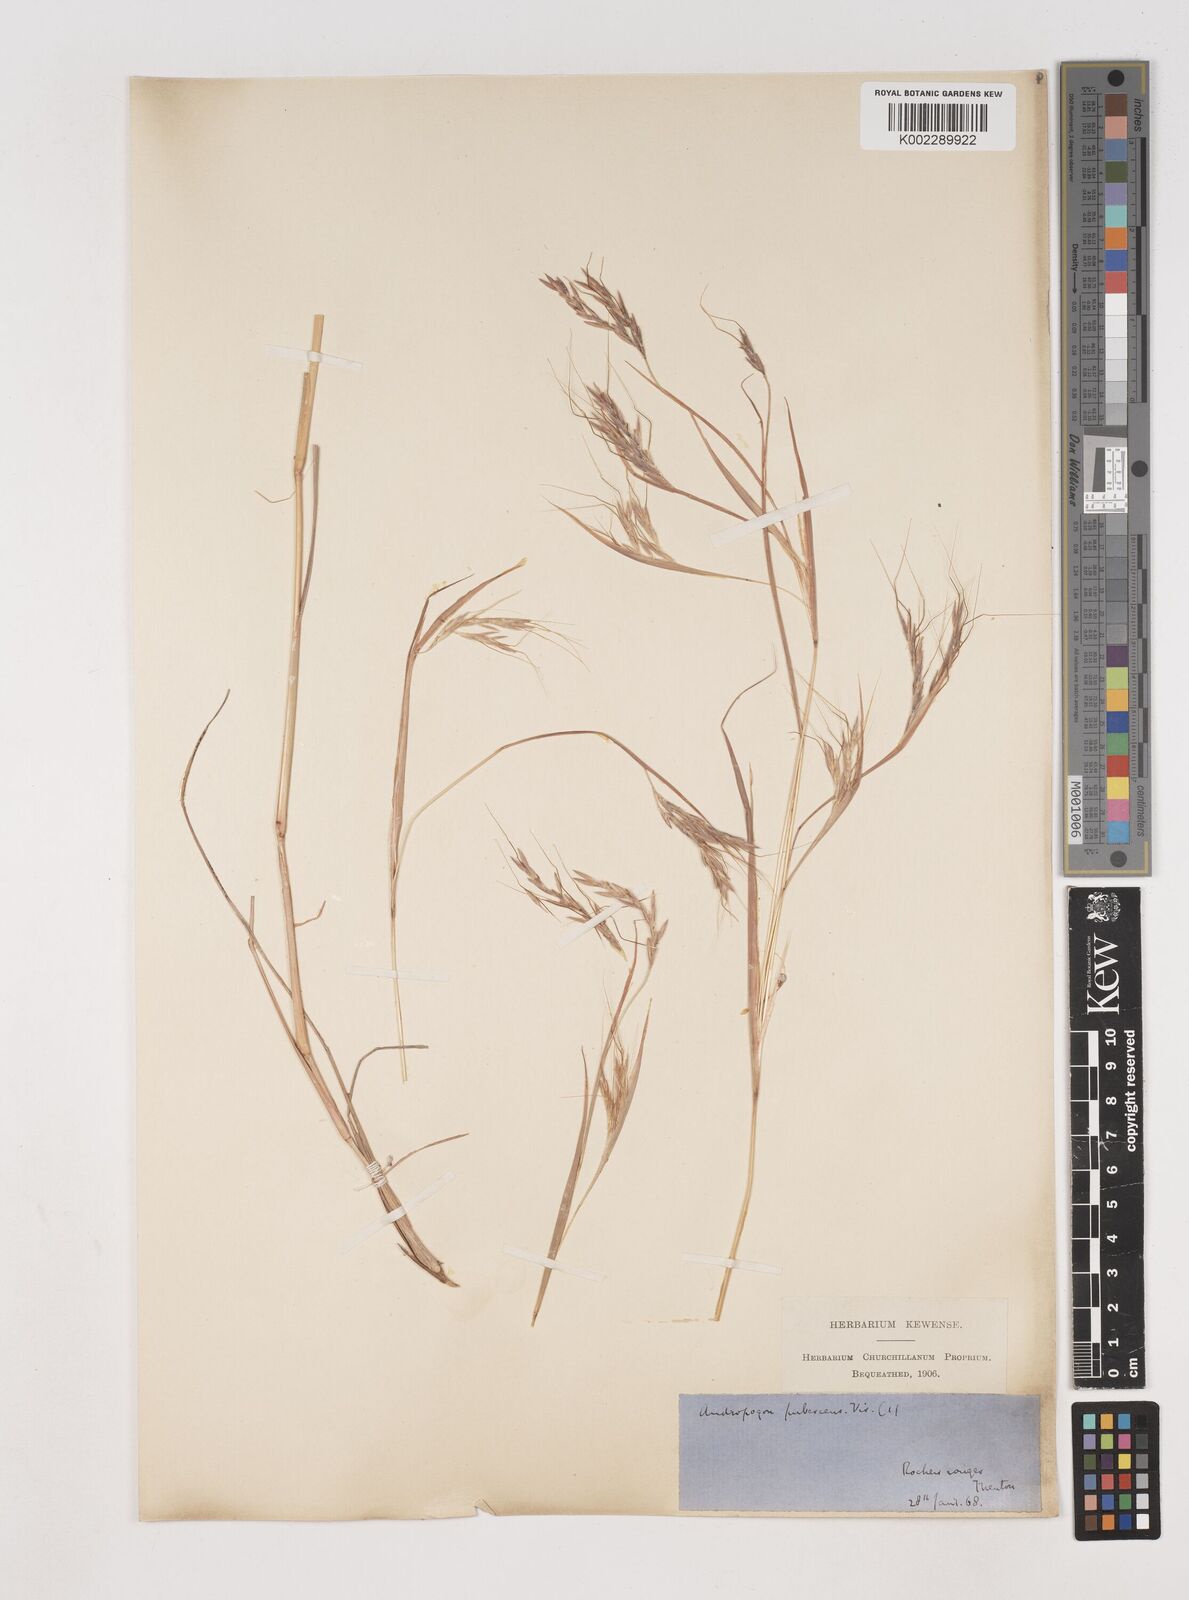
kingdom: Plantae
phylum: Tracheophyta
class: Liliopsida
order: Poales
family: Poaceae
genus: Hyparrhenia
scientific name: Hyparrhenia hirta
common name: Thatching grass
